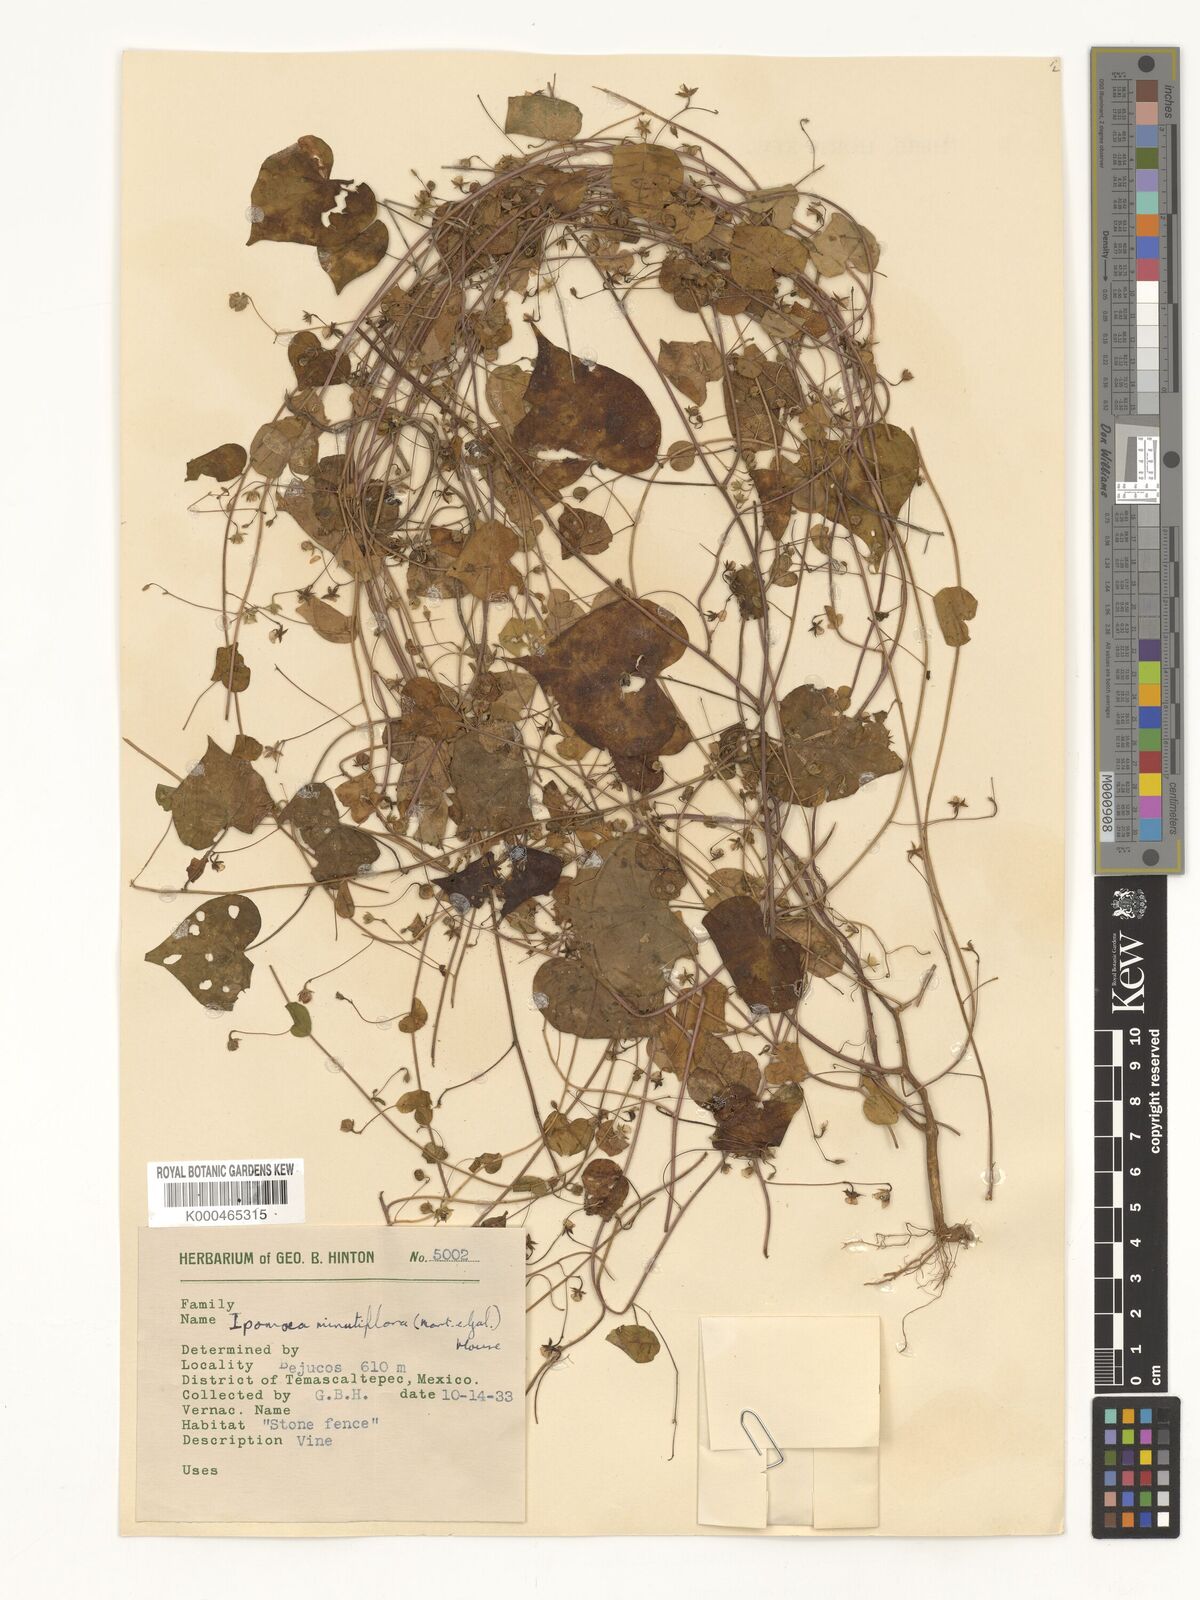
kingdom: Plantae
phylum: Tracheophyta
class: Magnoliopsida
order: Solanales
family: Convolvulaceae
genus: Ipomoea
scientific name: Ipomoea minutiflora
